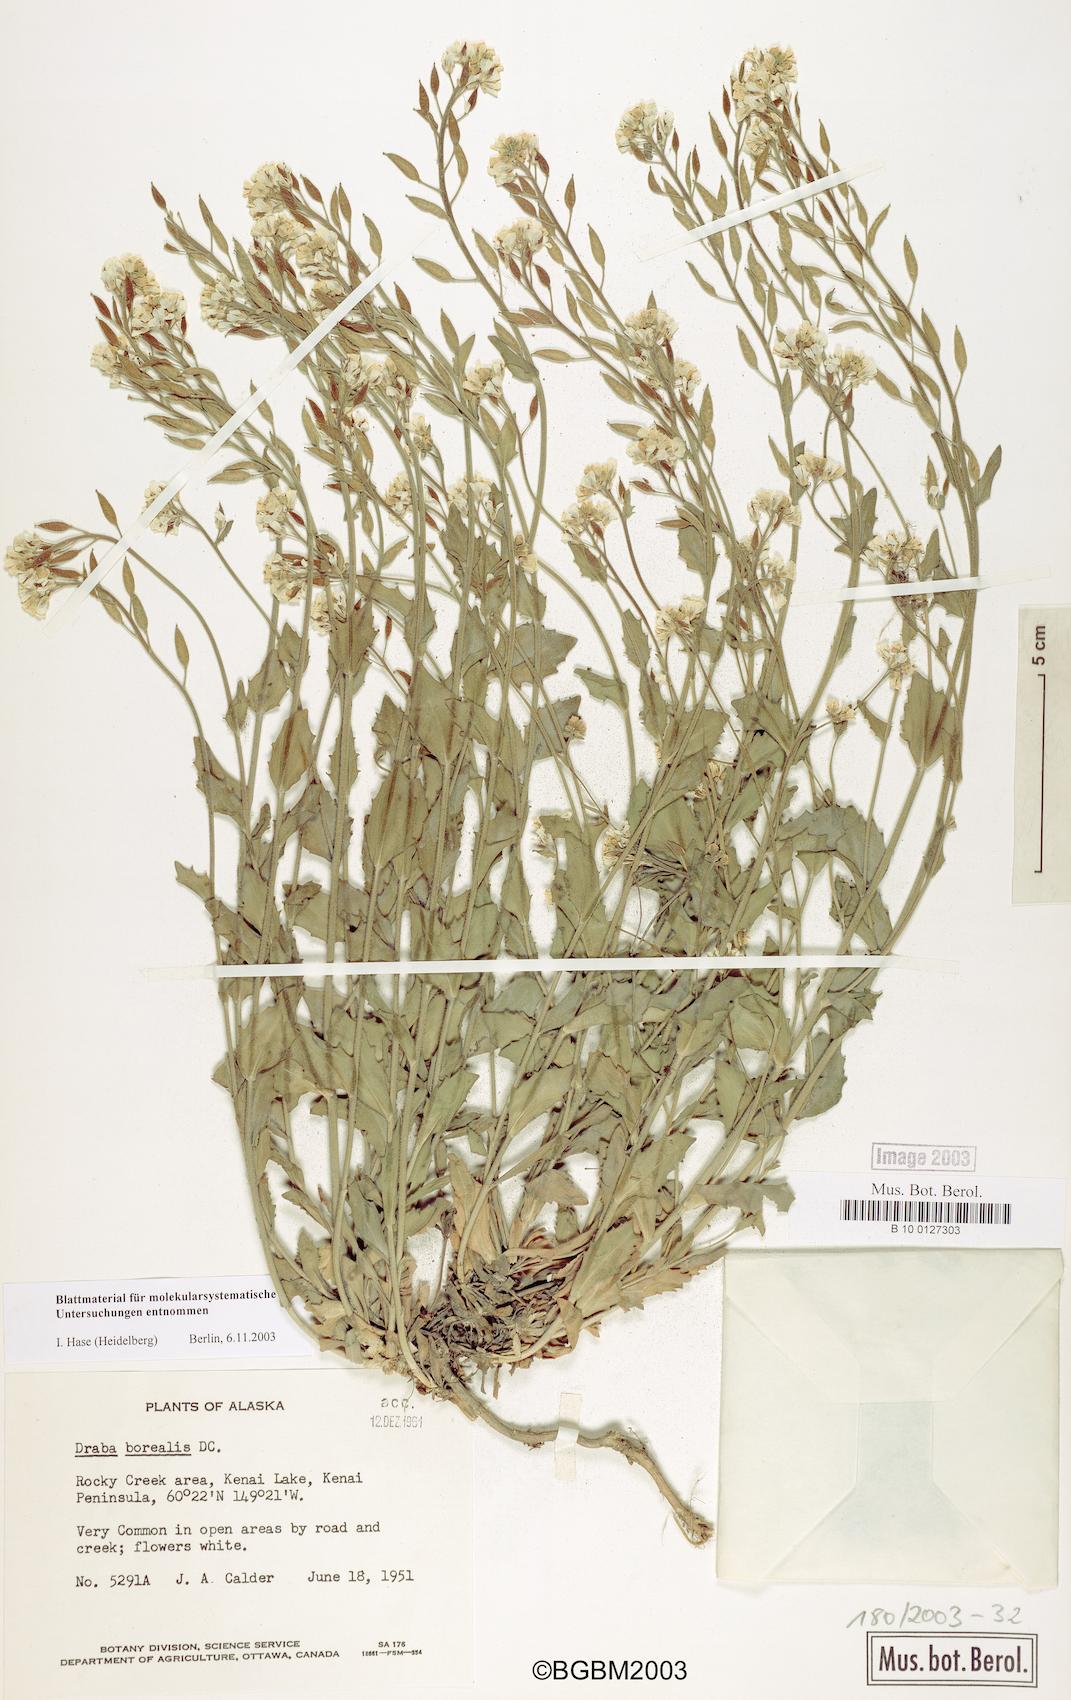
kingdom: Plantae
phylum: Tracheophyta
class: Magnoliopsida
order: Brassicales
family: Brassicaceae
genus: Draba
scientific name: Draba borealis
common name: Boreal draba
